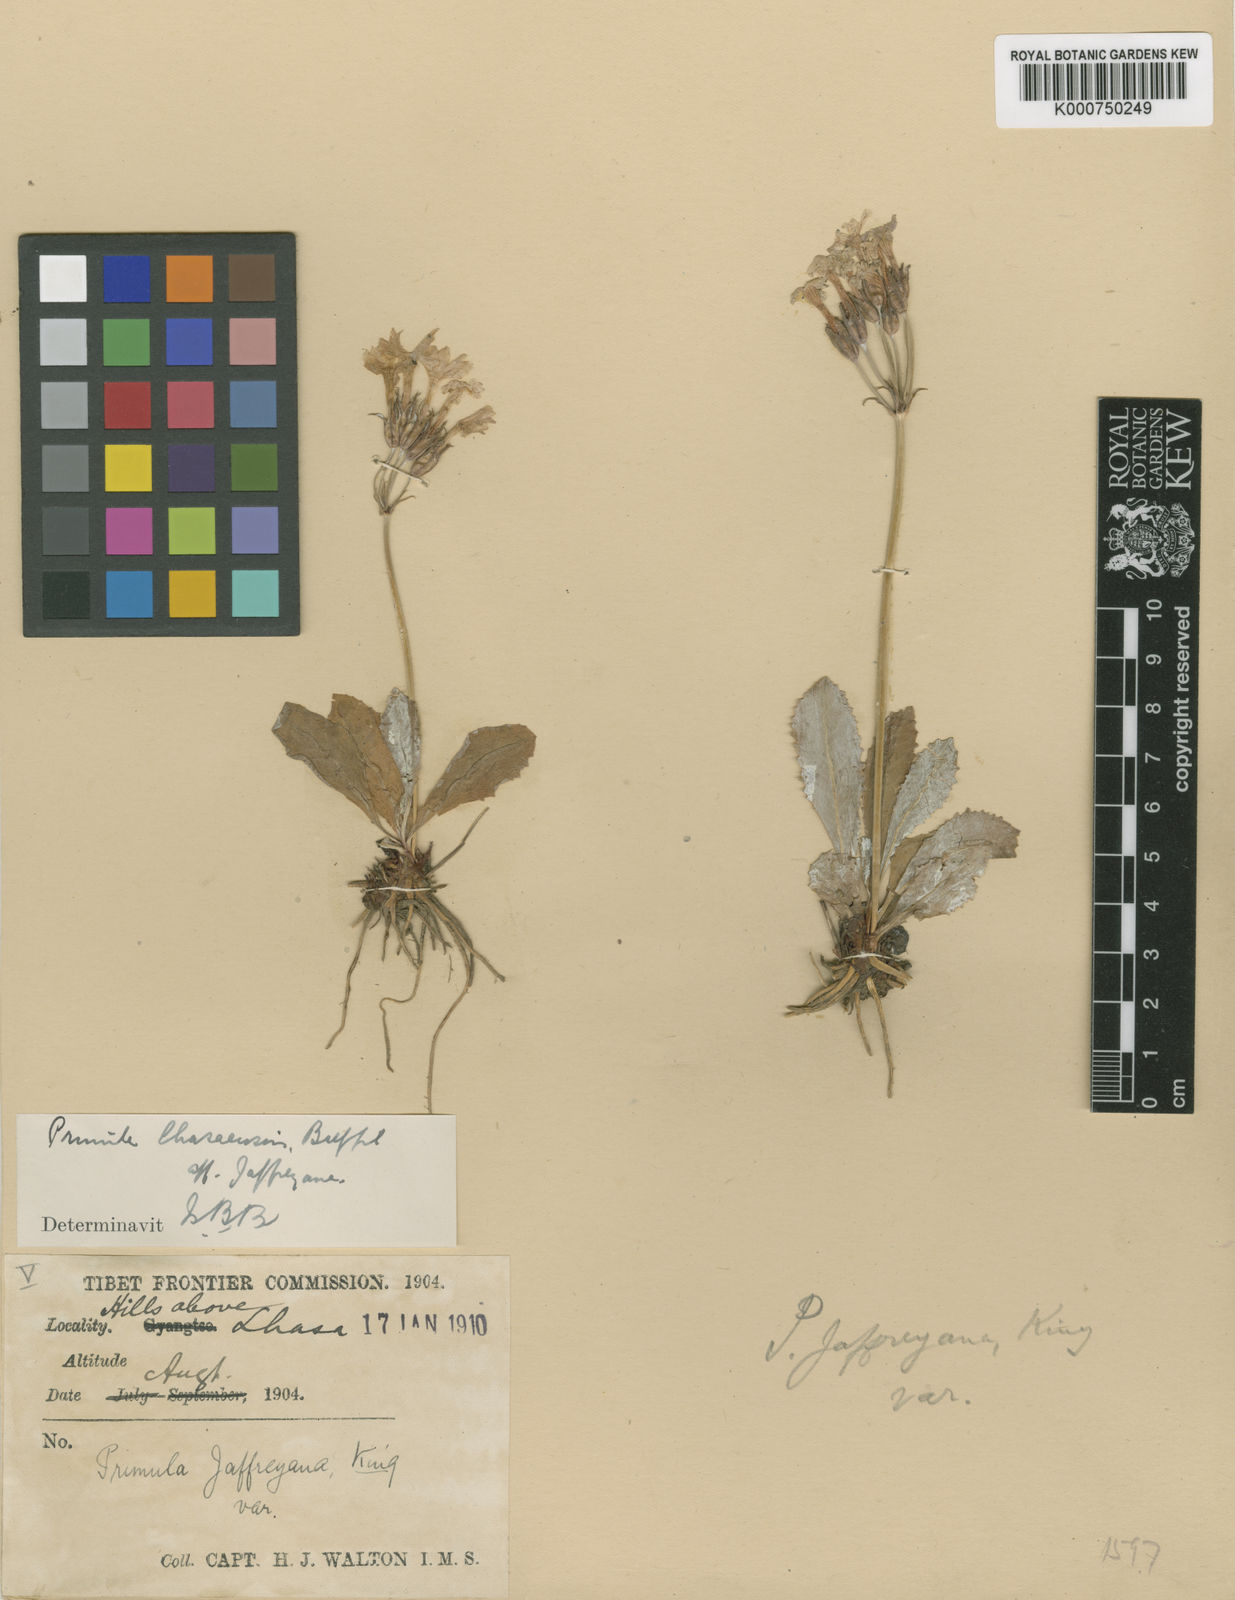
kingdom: Plantae
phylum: Tracheophyta
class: Magnoliopsida
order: Ericales
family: Primulaceae
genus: Primula
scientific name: Primula jaffreyana
